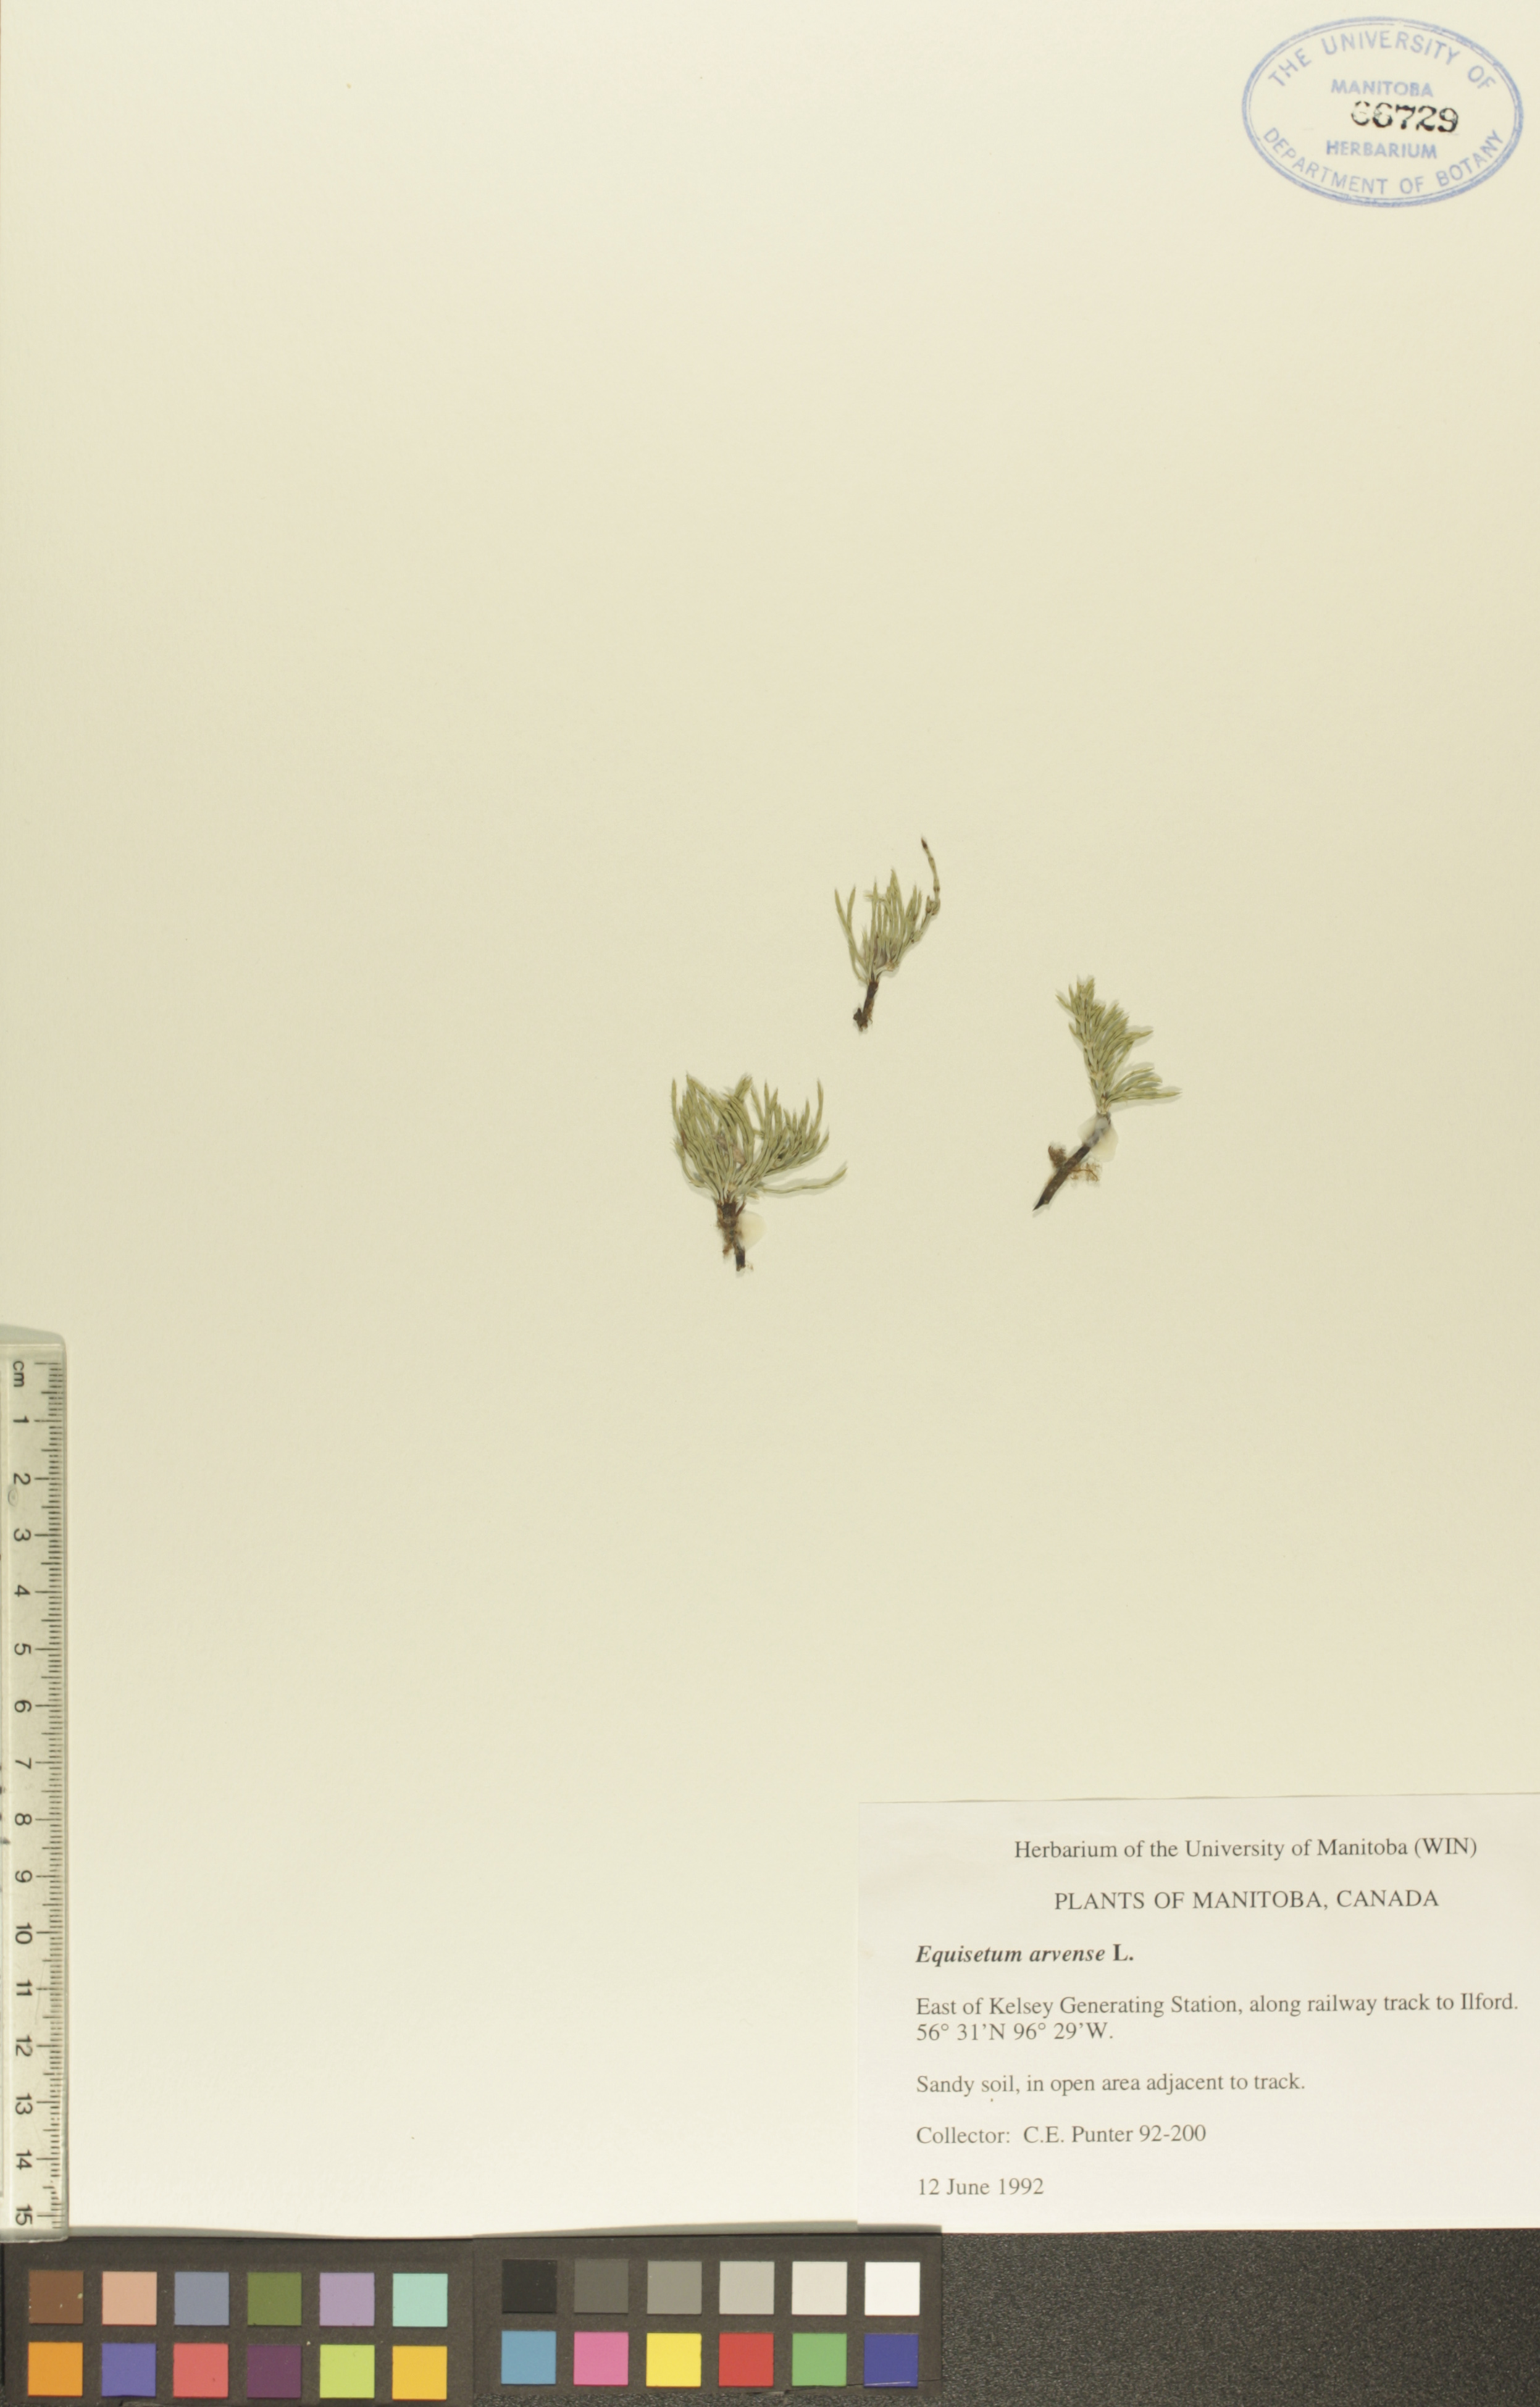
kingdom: Plantae
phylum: Tracheophyta
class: Polypodiopsida
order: Equisetales
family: Equisetaceae
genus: Equisetum
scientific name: Equisetum arvense
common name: Field horsetail
